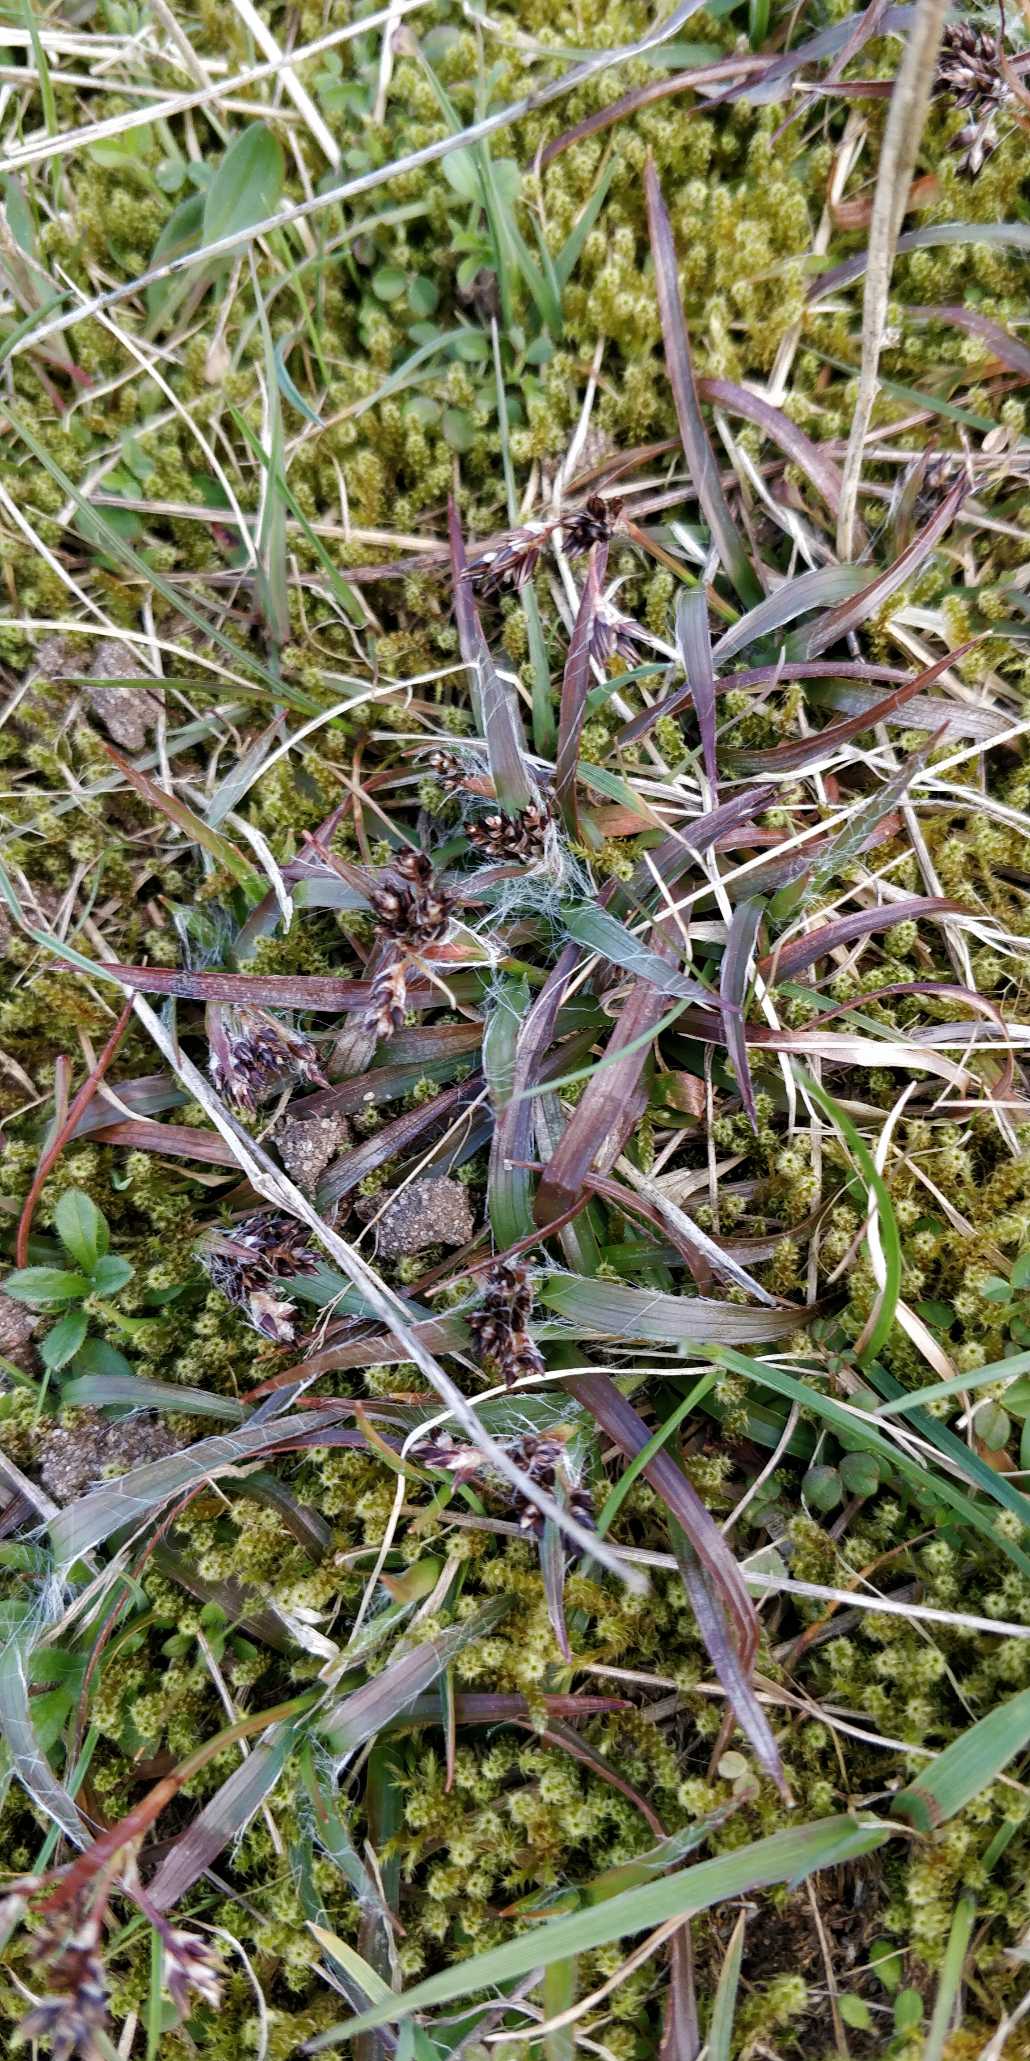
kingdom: Plantae
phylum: Tracheophyta
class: Liliopsida
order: Poales
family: Juncaceae
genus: Luzula
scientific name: Luzula campestris
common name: Mark-frytle
